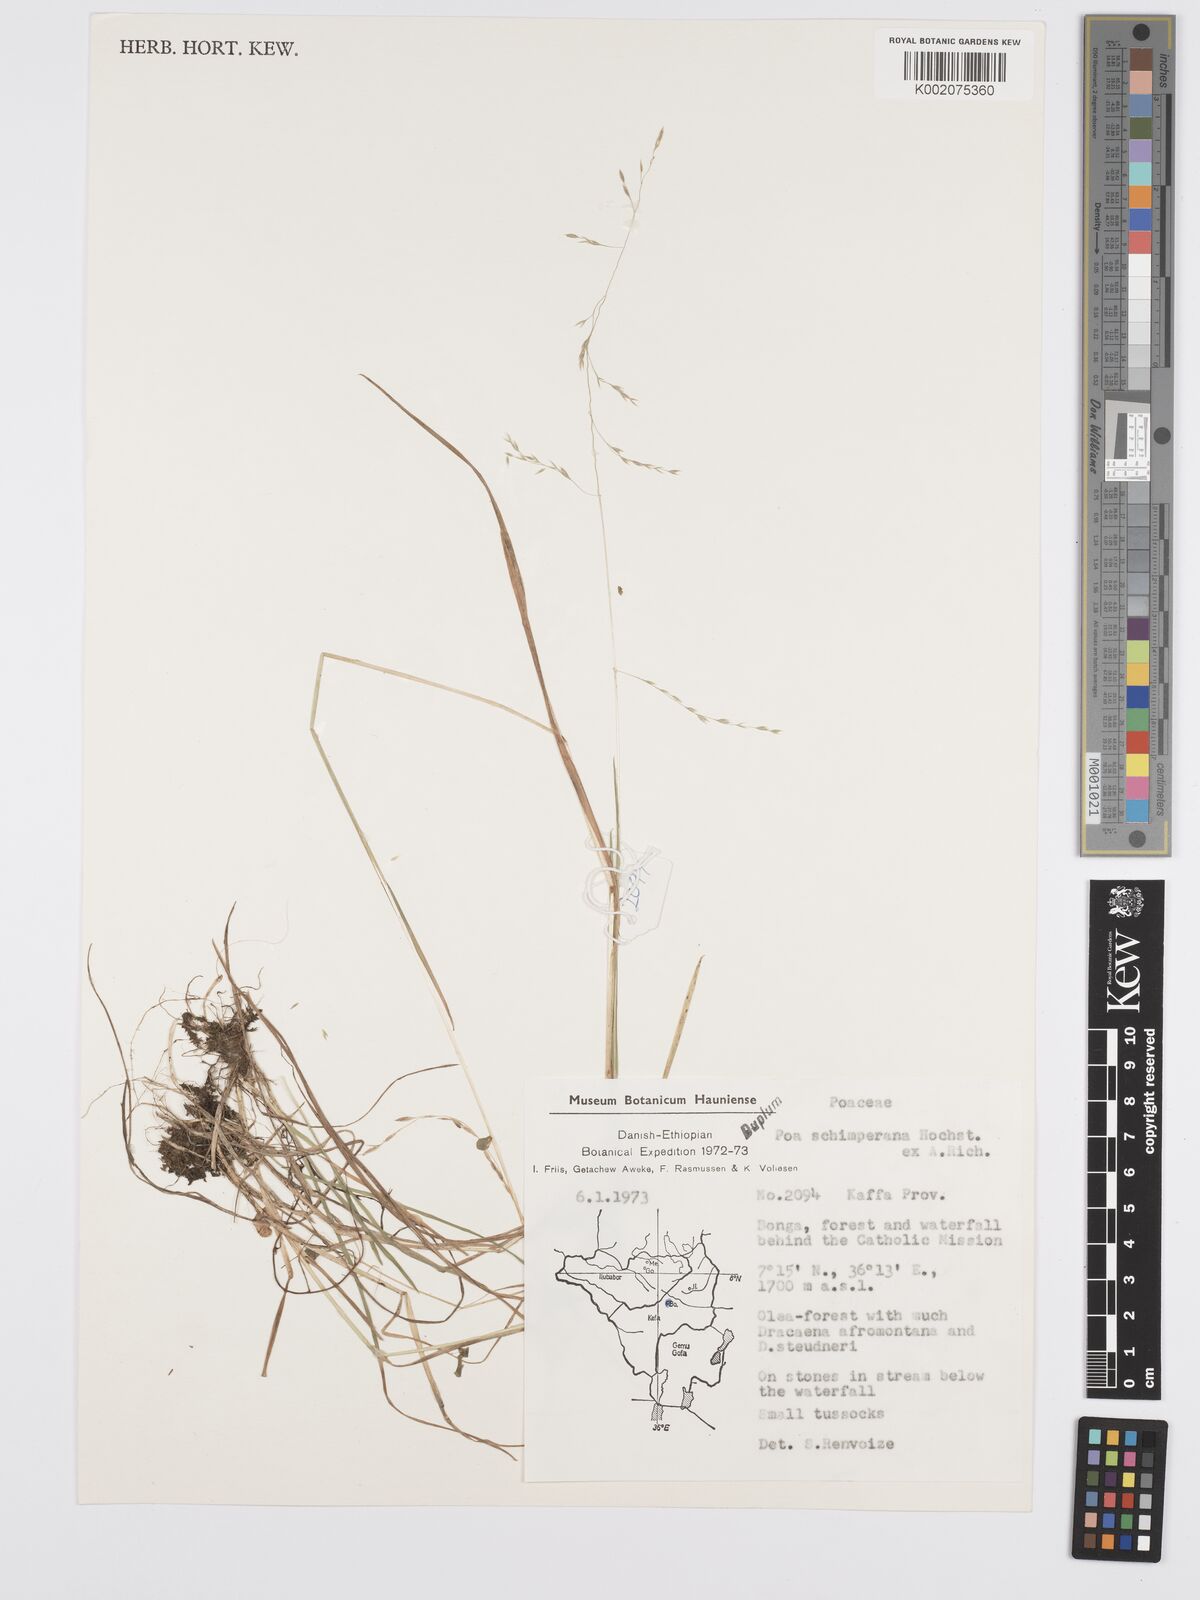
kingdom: Plantae
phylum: Tracheophyta
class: Liliopsida
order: Poales
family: Poaceae
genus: Poa
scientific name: Poa schimperiana
